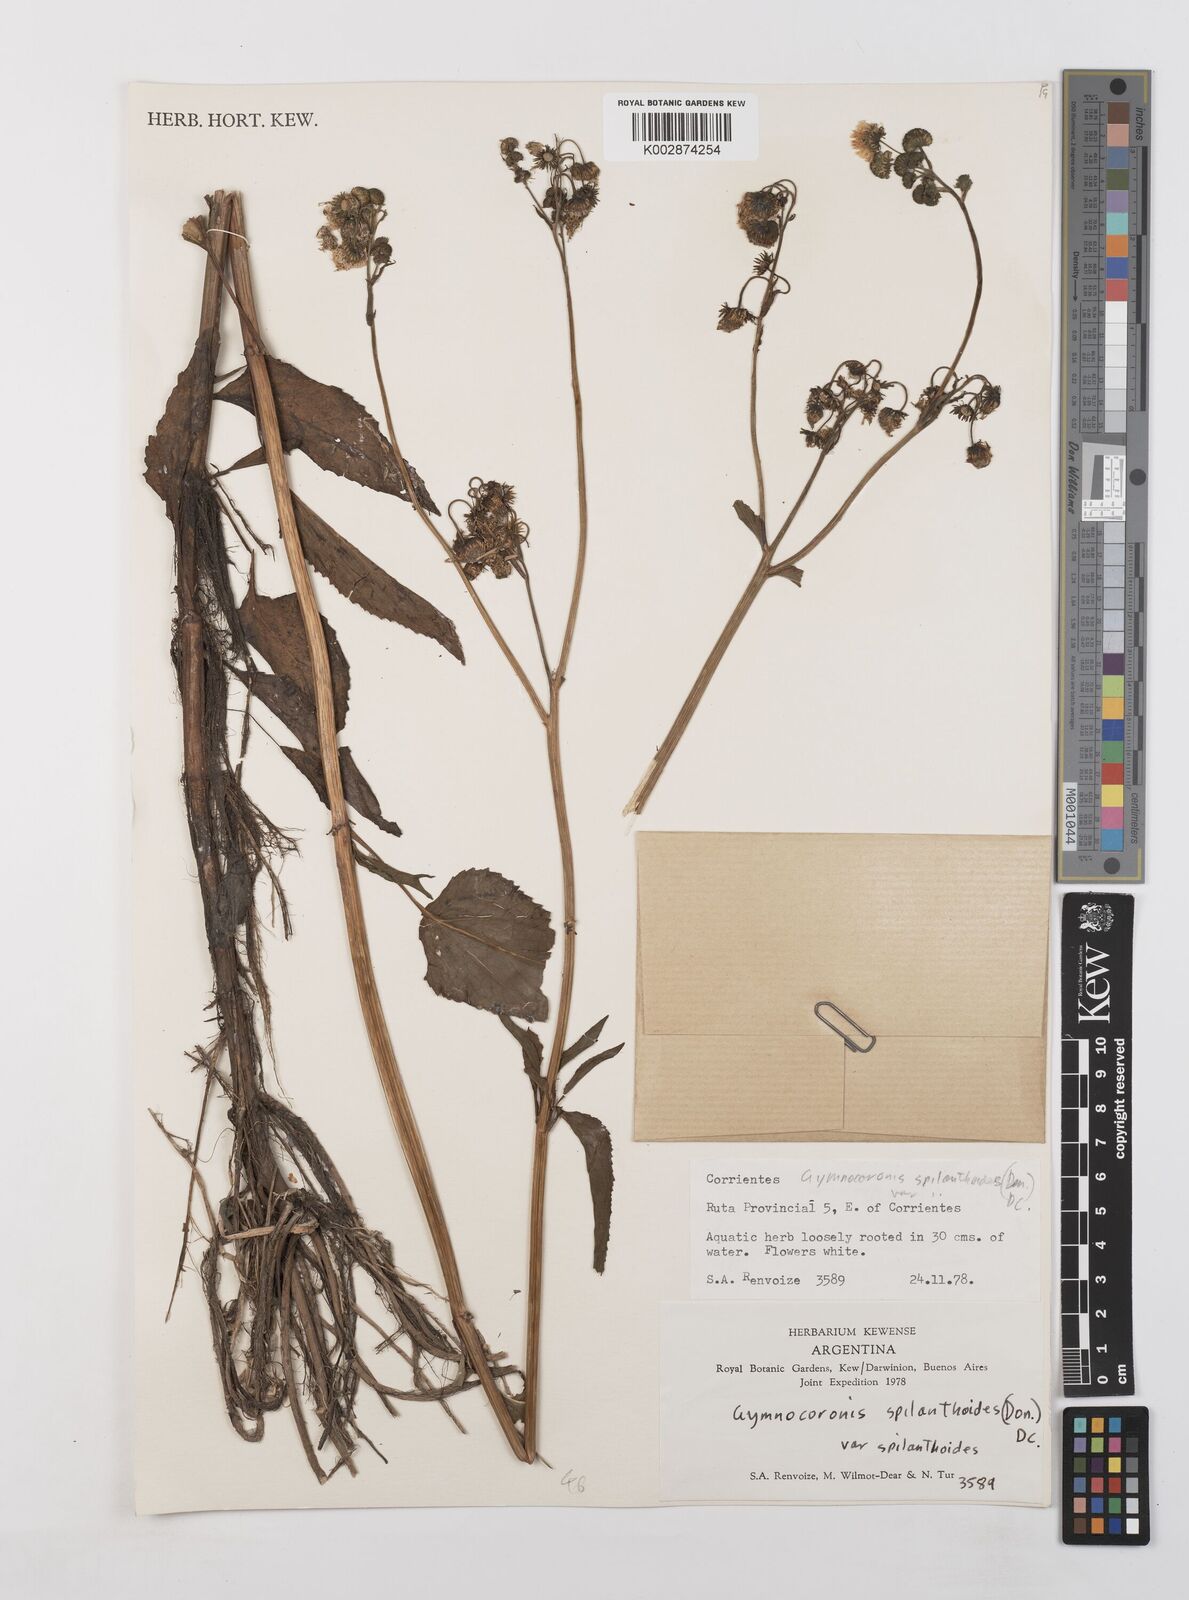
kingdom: Plantae
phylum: Tracheophyta
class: Magnoliopsida
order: Asterales
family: Asteraceae
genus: Gymnocoronis
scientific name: Gymnocoronis spilanthoides
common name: Senegal teaplant
